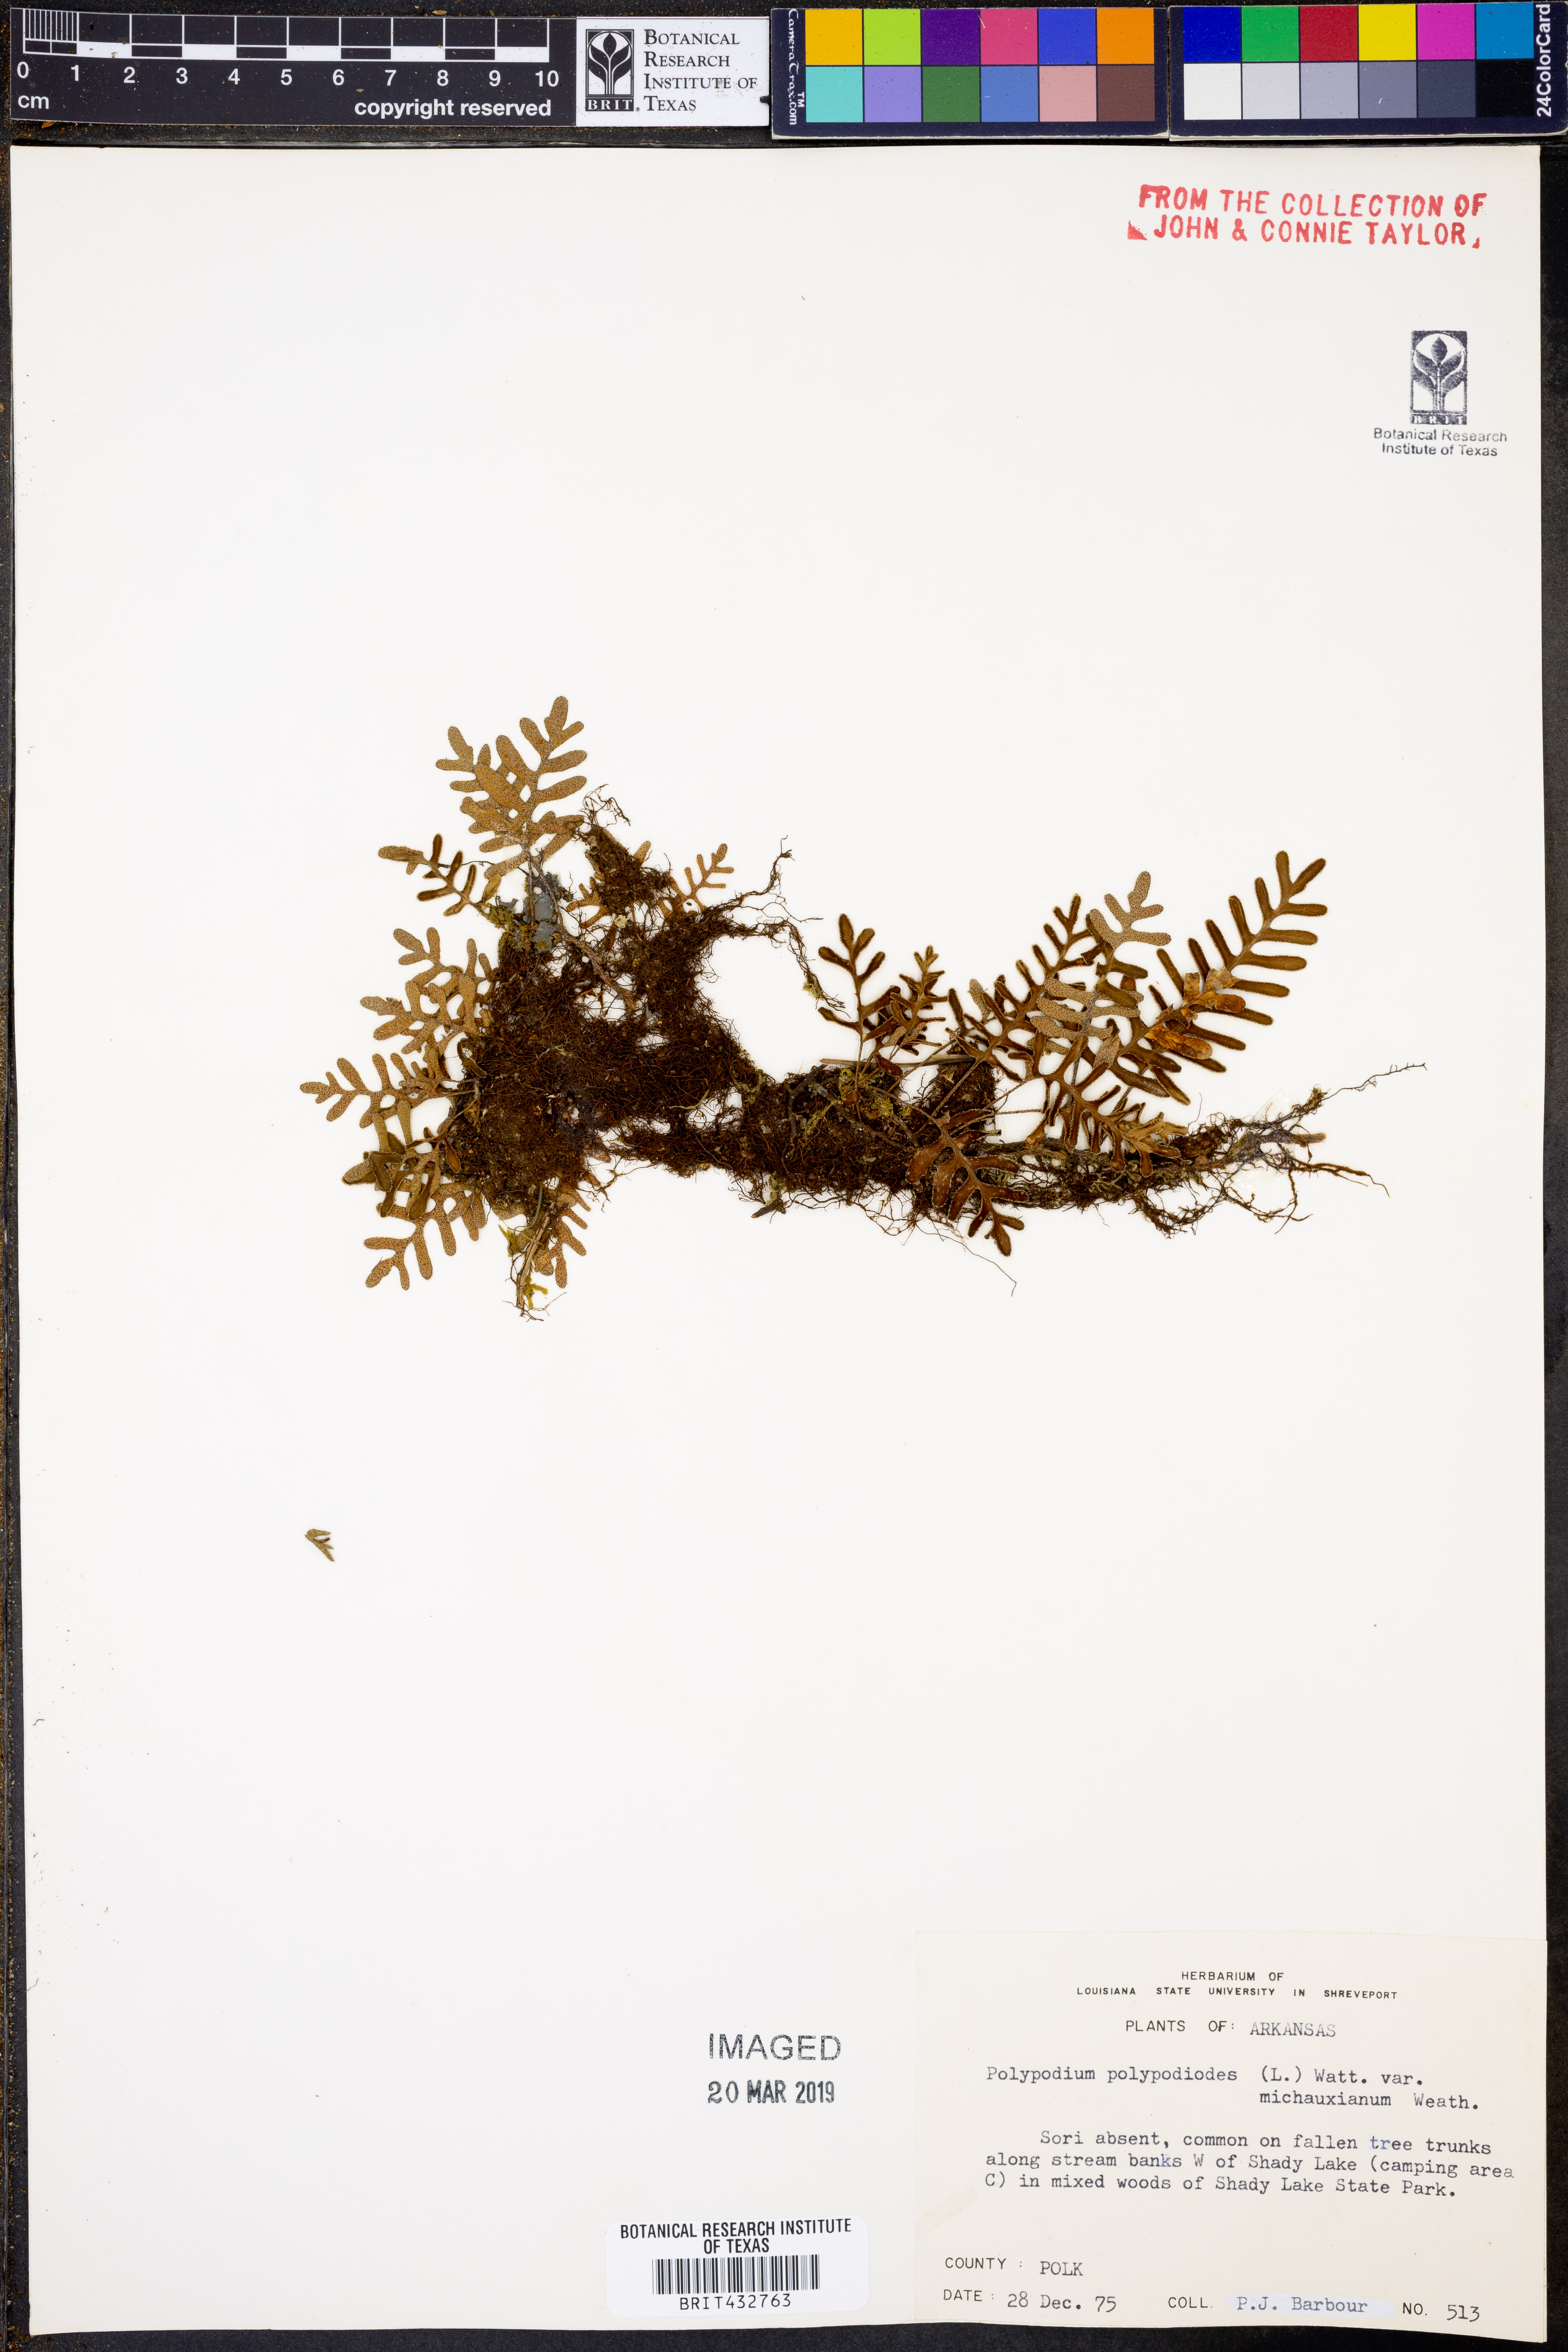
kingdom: Plantae
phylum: Tracheophyta
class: Polypodiopsida
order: Polypodiales
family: Polypodiaceae
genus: Pleopeltis
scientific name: Pleopeltis michauxiana
